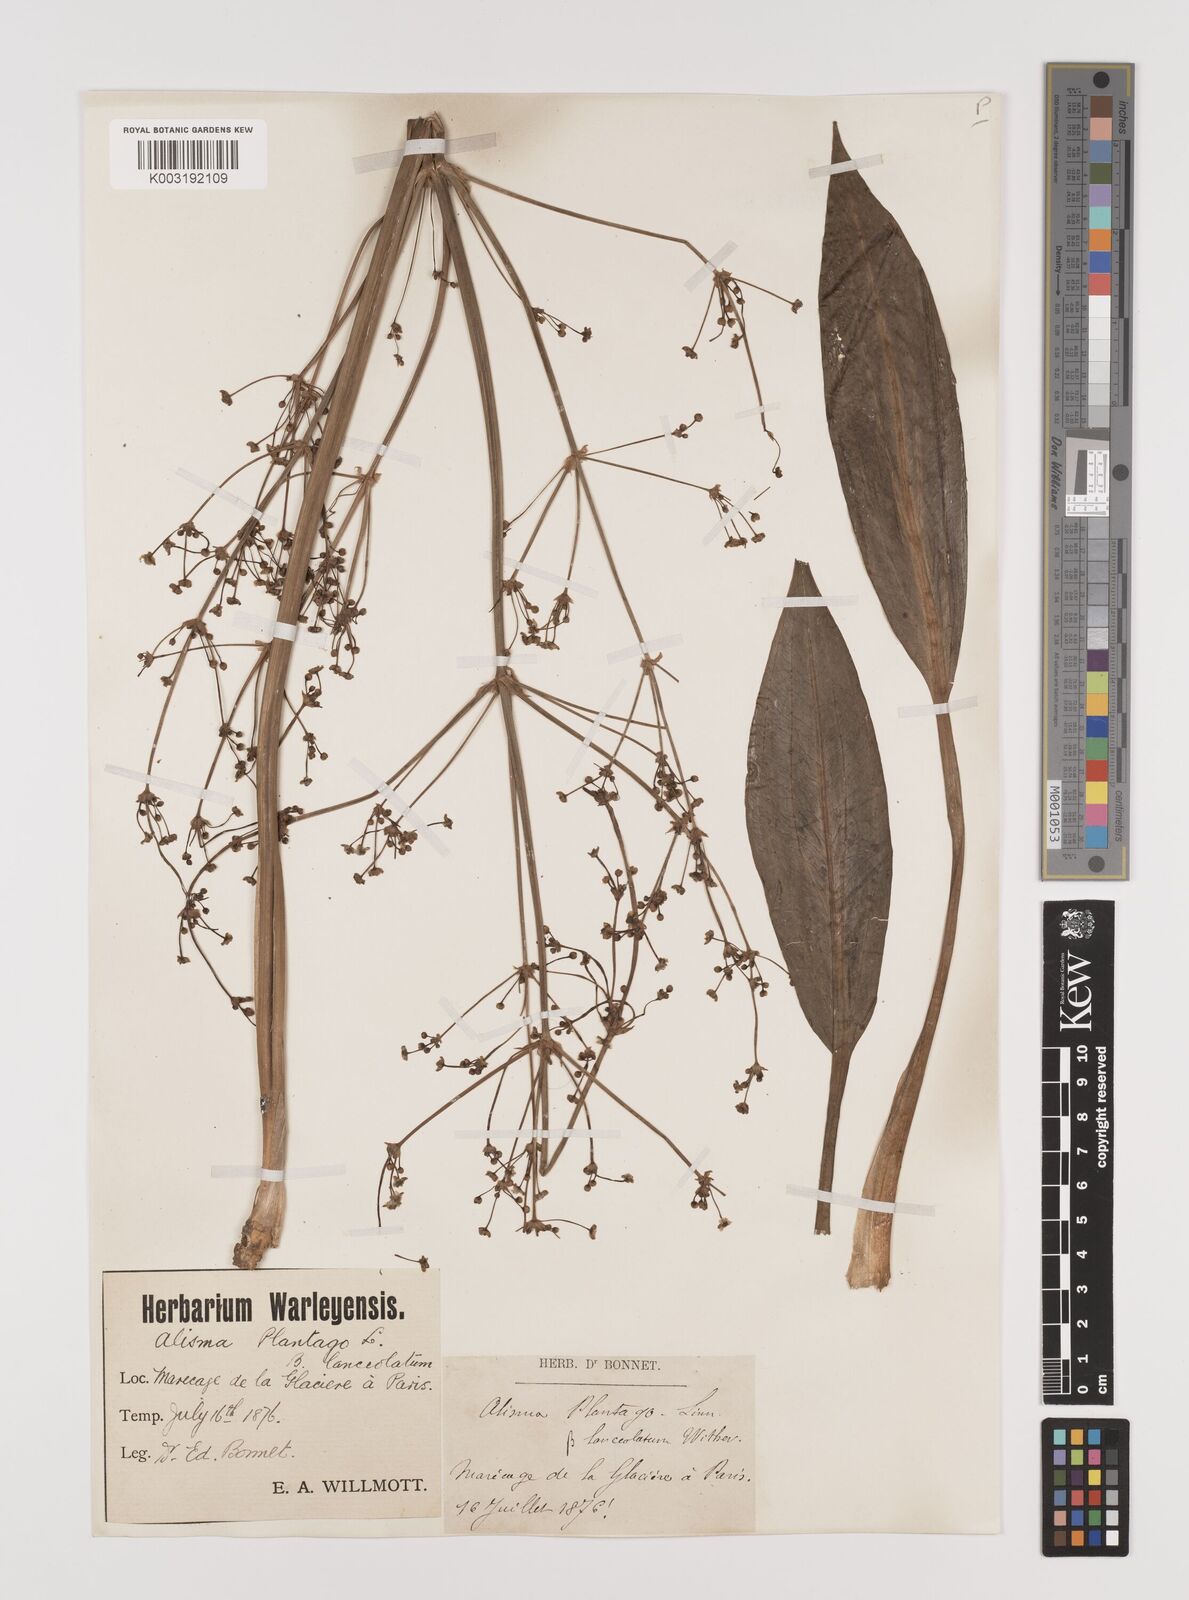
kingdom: Plantae
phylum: Tracheophyta
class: Liliopsida
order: Alismatales
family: Alismataceae
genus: Alisma
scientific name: Alisma plantago-aquatica
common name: Water-plantain
